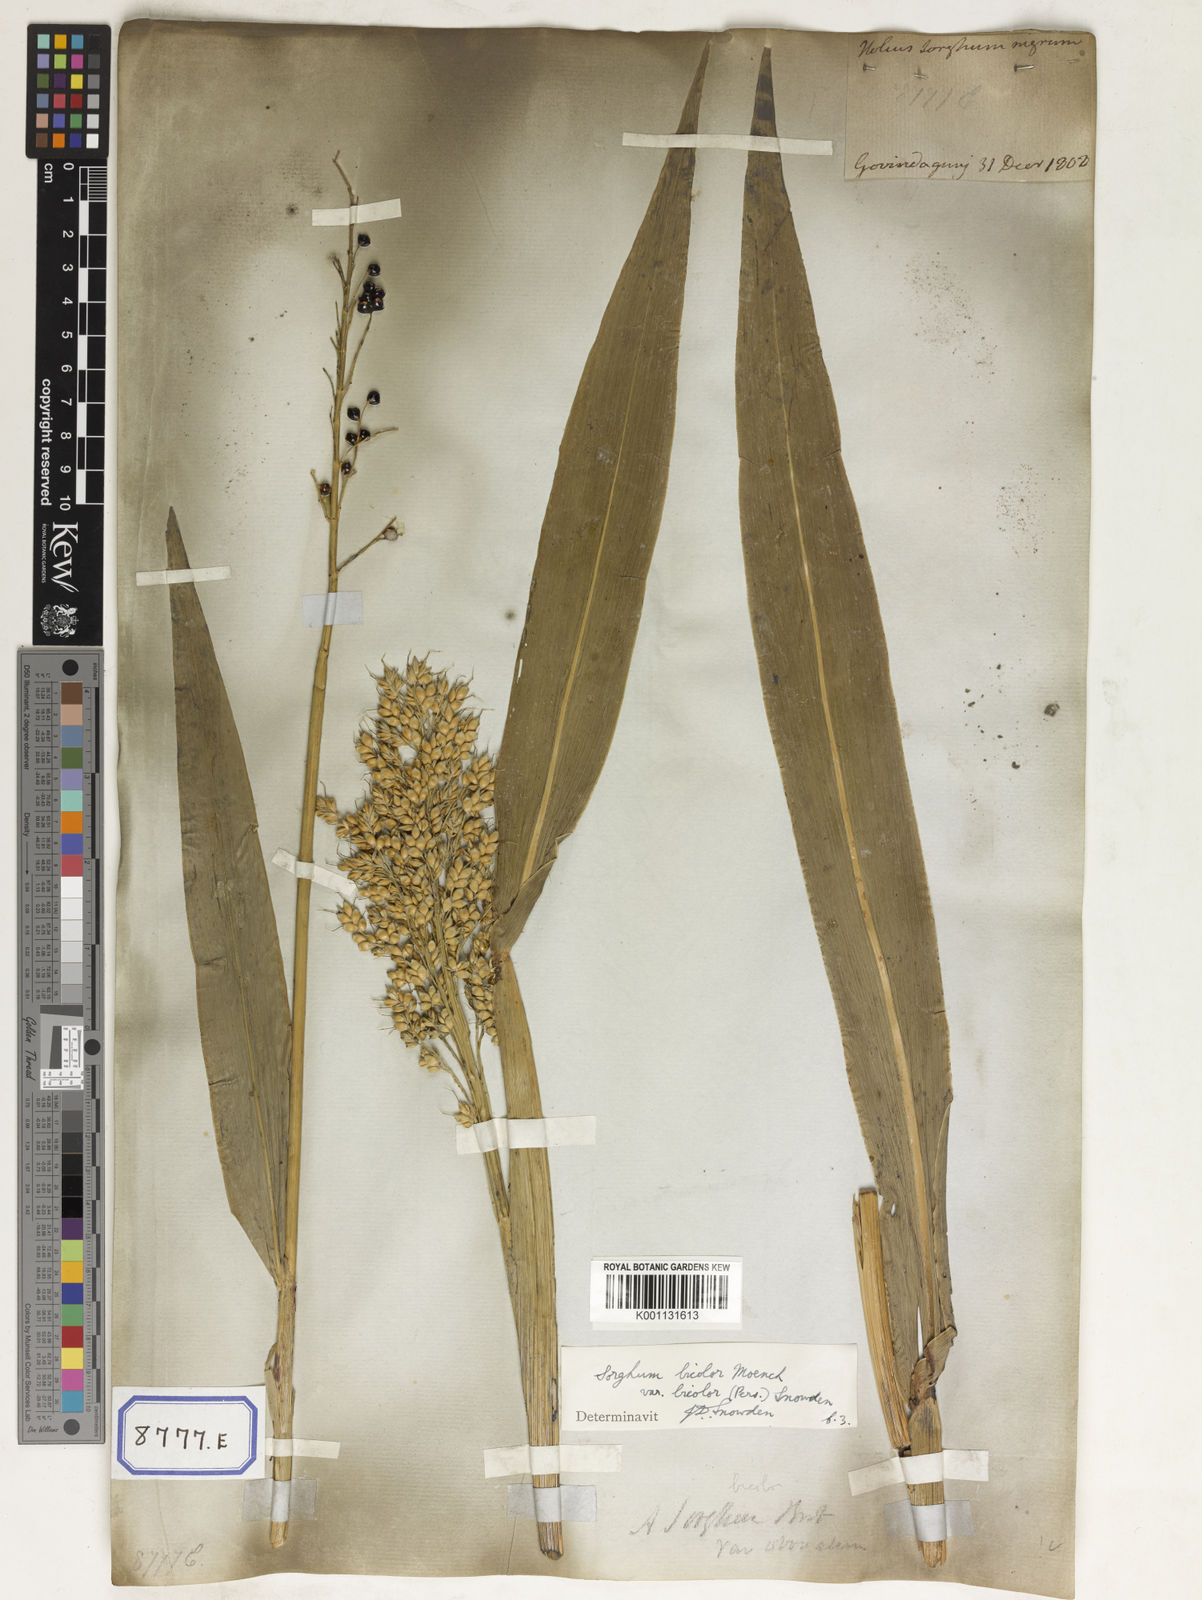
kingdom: Plantae
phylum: Tracheophyta
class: Liliopsida
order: Poales
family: Poaceae
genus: Sorghum
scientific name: Sorghum bicolor
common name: Sorghum
